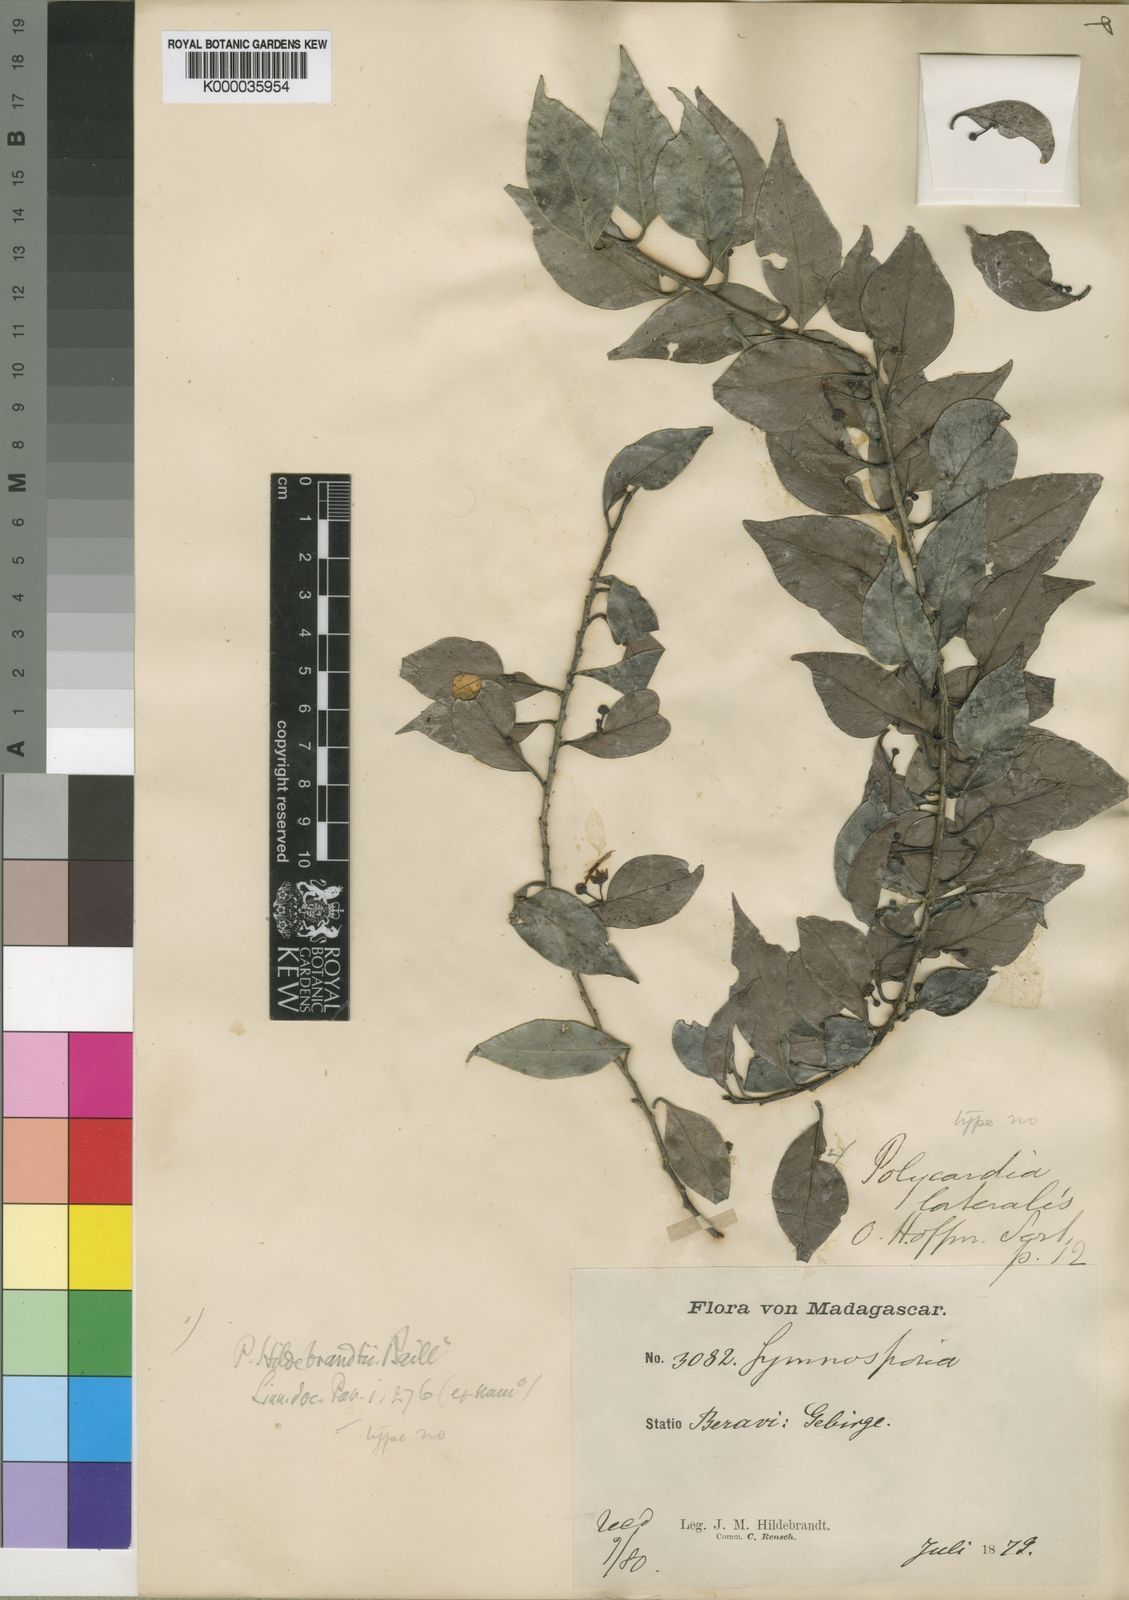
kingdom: Plantae
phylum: Tracheophyta
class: Magnoliopsida
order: Celastrales
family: Celastraceae
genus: Polycardia
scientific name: Polycardia lateralis
